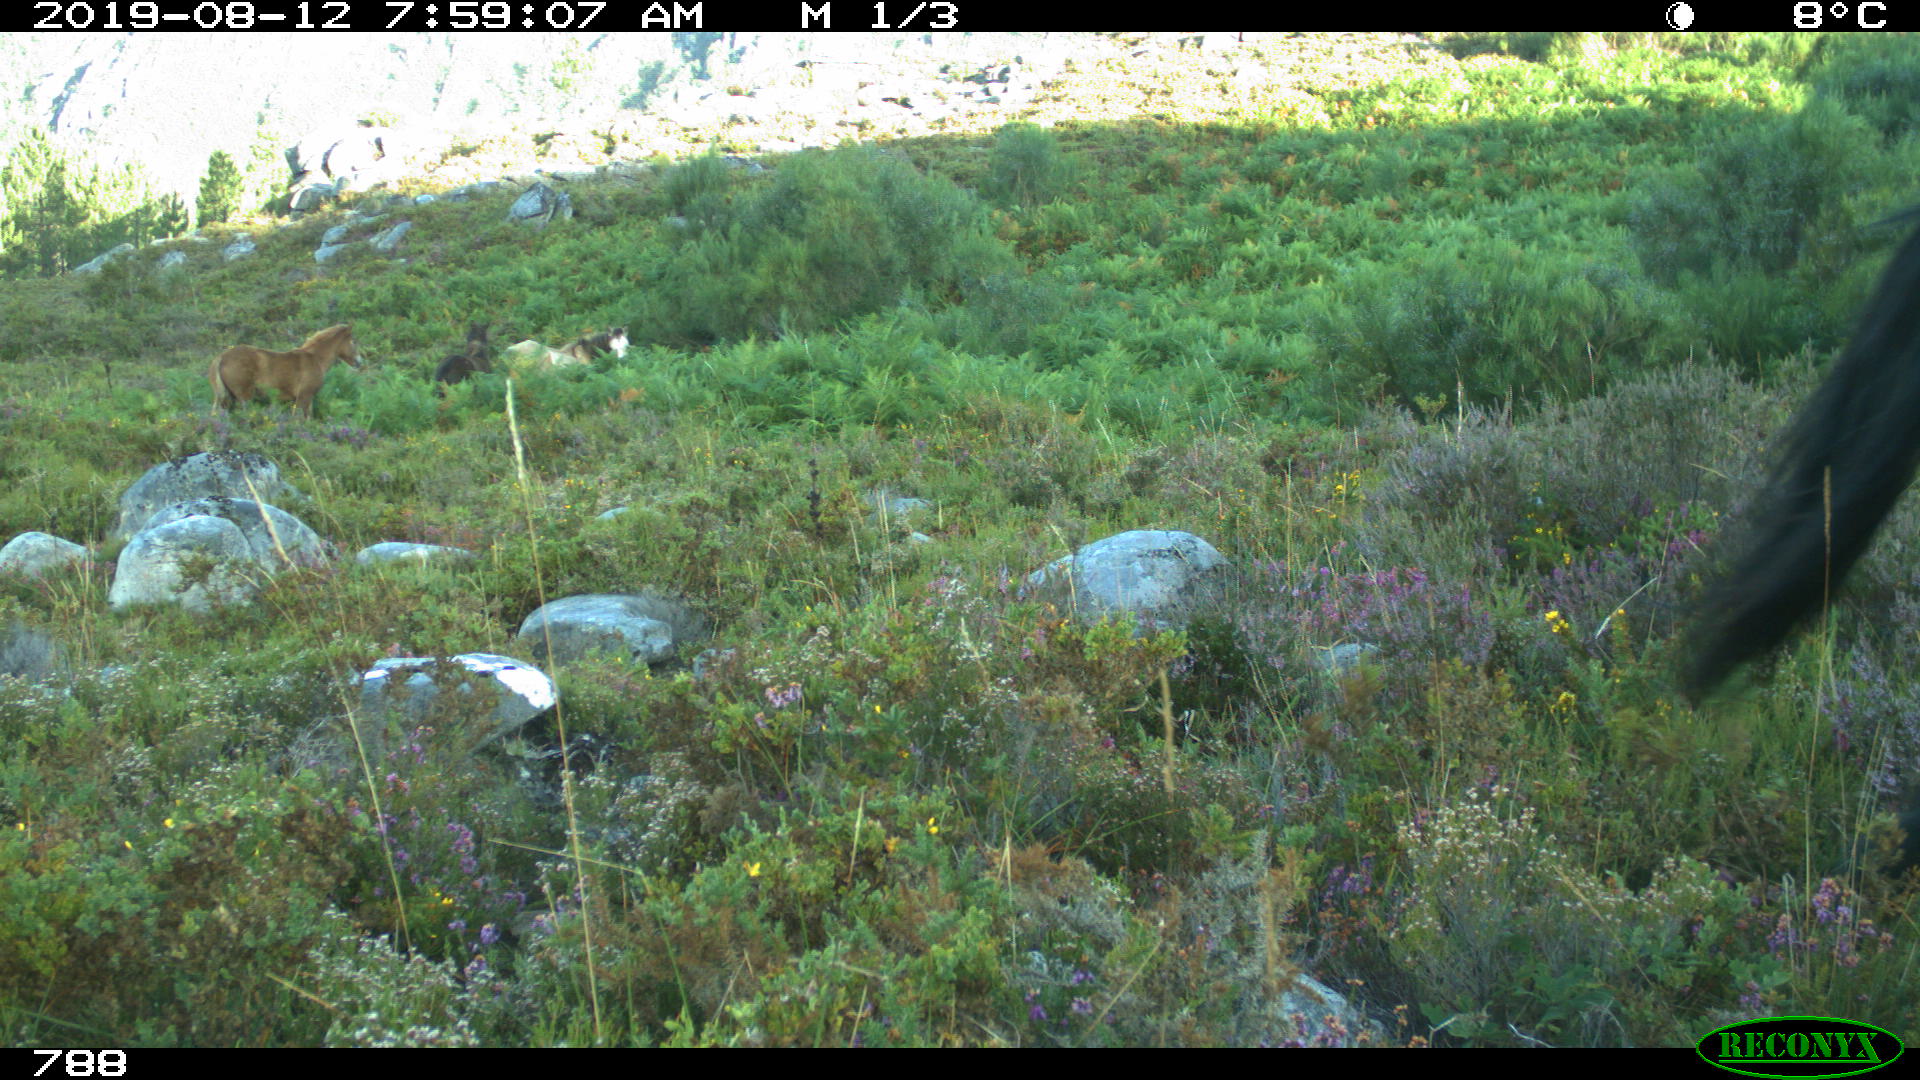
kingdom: Animalia
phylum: Chordata
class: Mammalia
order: Perissodactyla
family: Equidae
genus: Equus
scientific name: Equus caballus
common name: Horse
